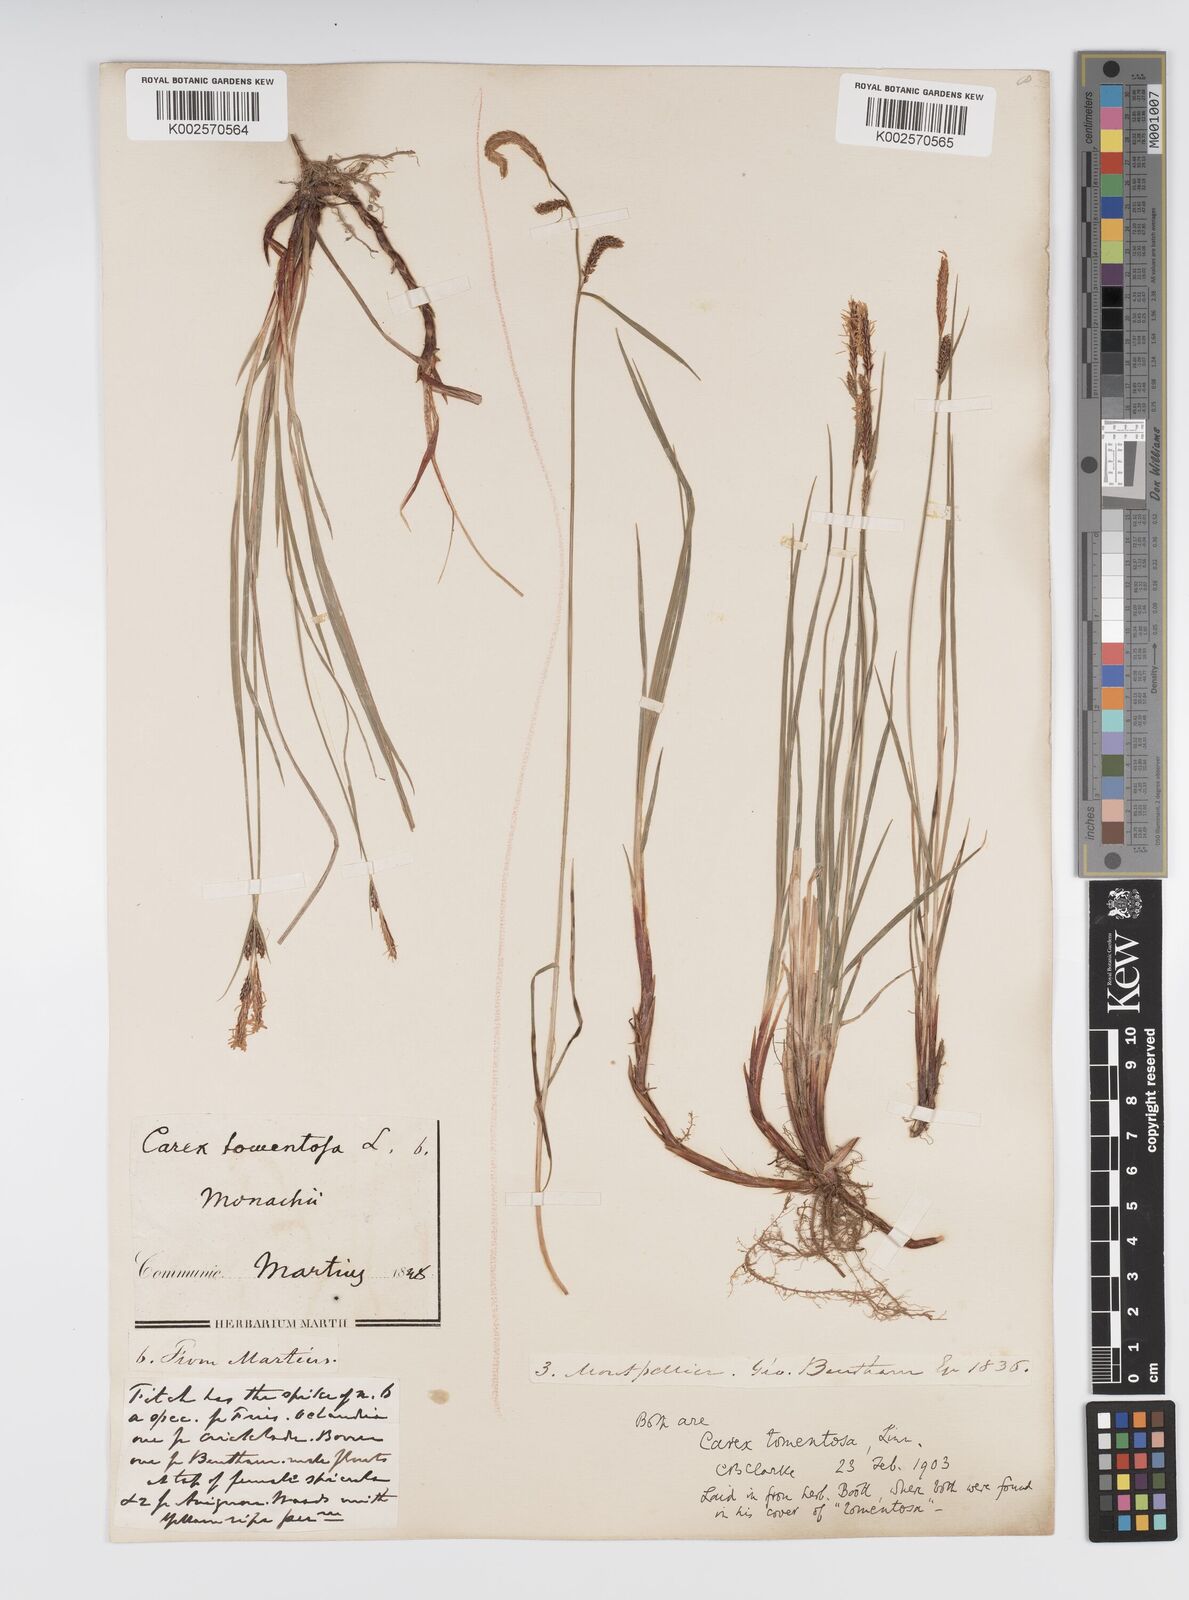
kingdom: Plantae
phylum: Tracheophyta
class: Liliopsida
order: Poales
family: Cyperaceae
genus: Carex
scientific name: Carex montana
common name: Soft-leaved sedge
